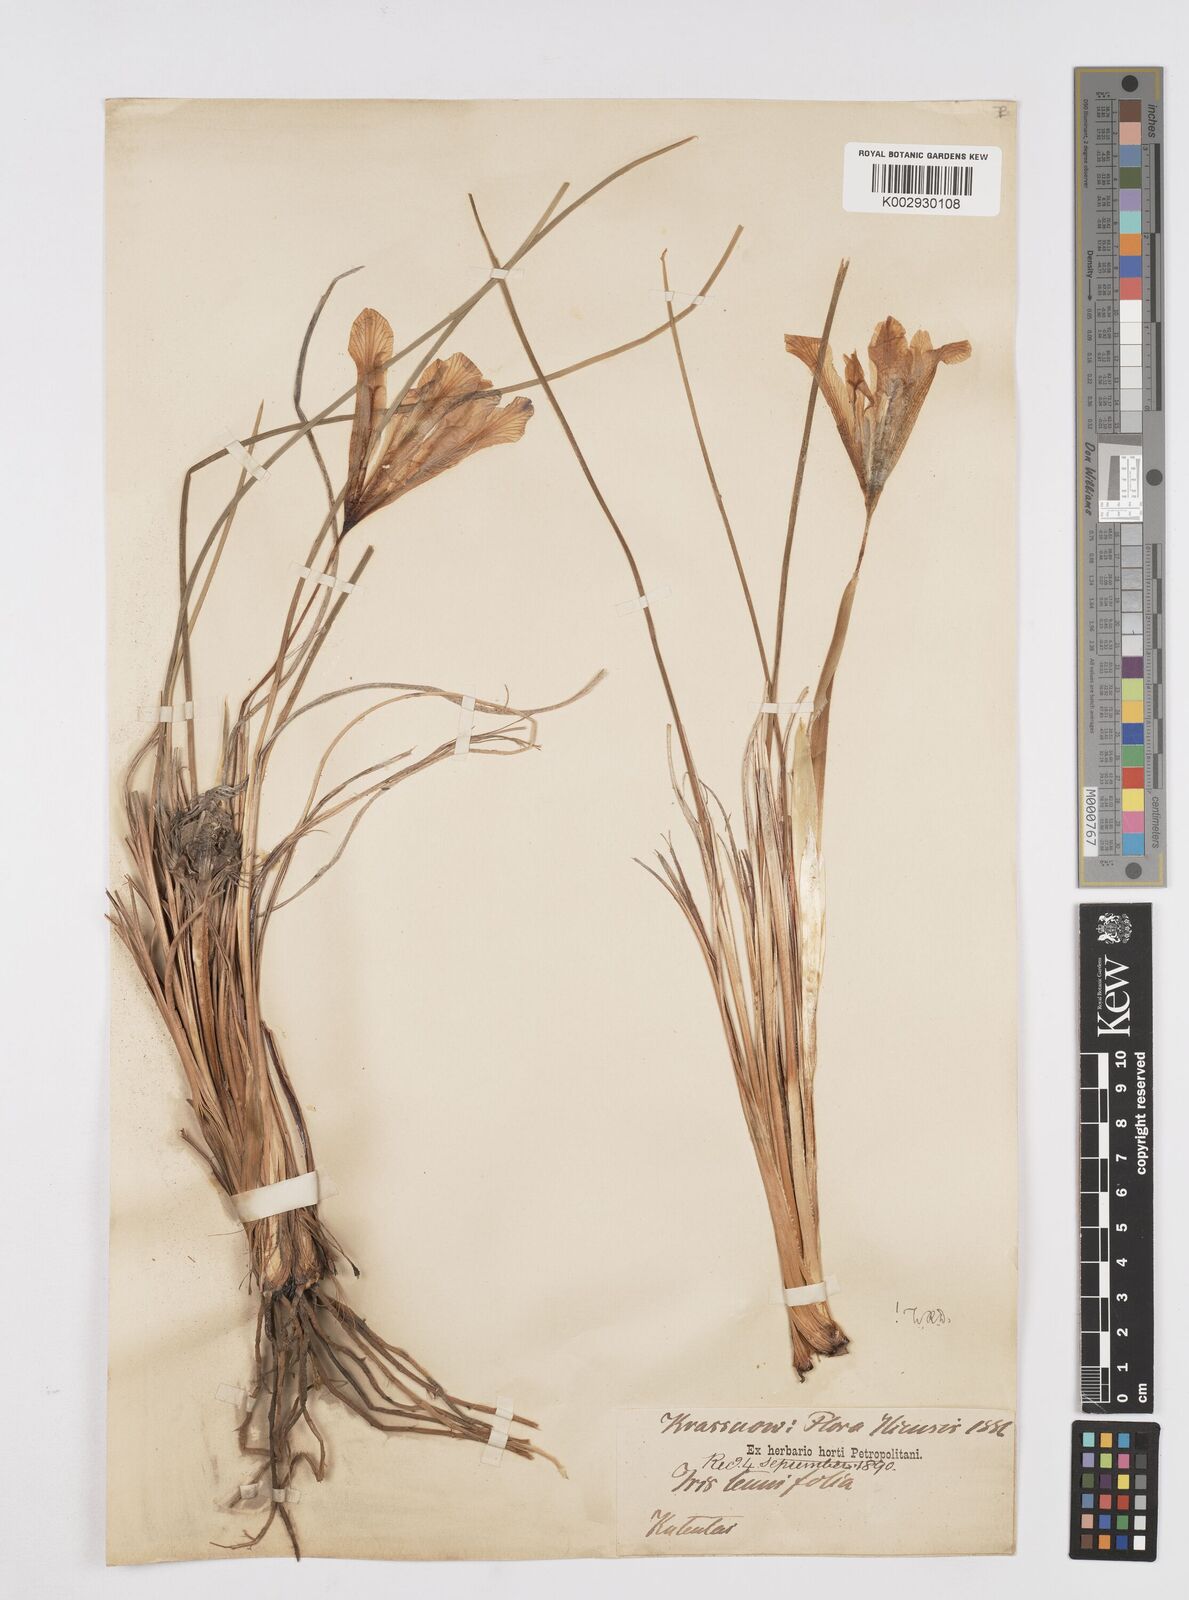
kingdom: Plantae
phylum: Tracheophyta
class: Liliopsida
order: Asparagales
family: Iridaceae
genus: Iris
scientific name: Iris tenuifolia
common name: Slender-leaf iris
